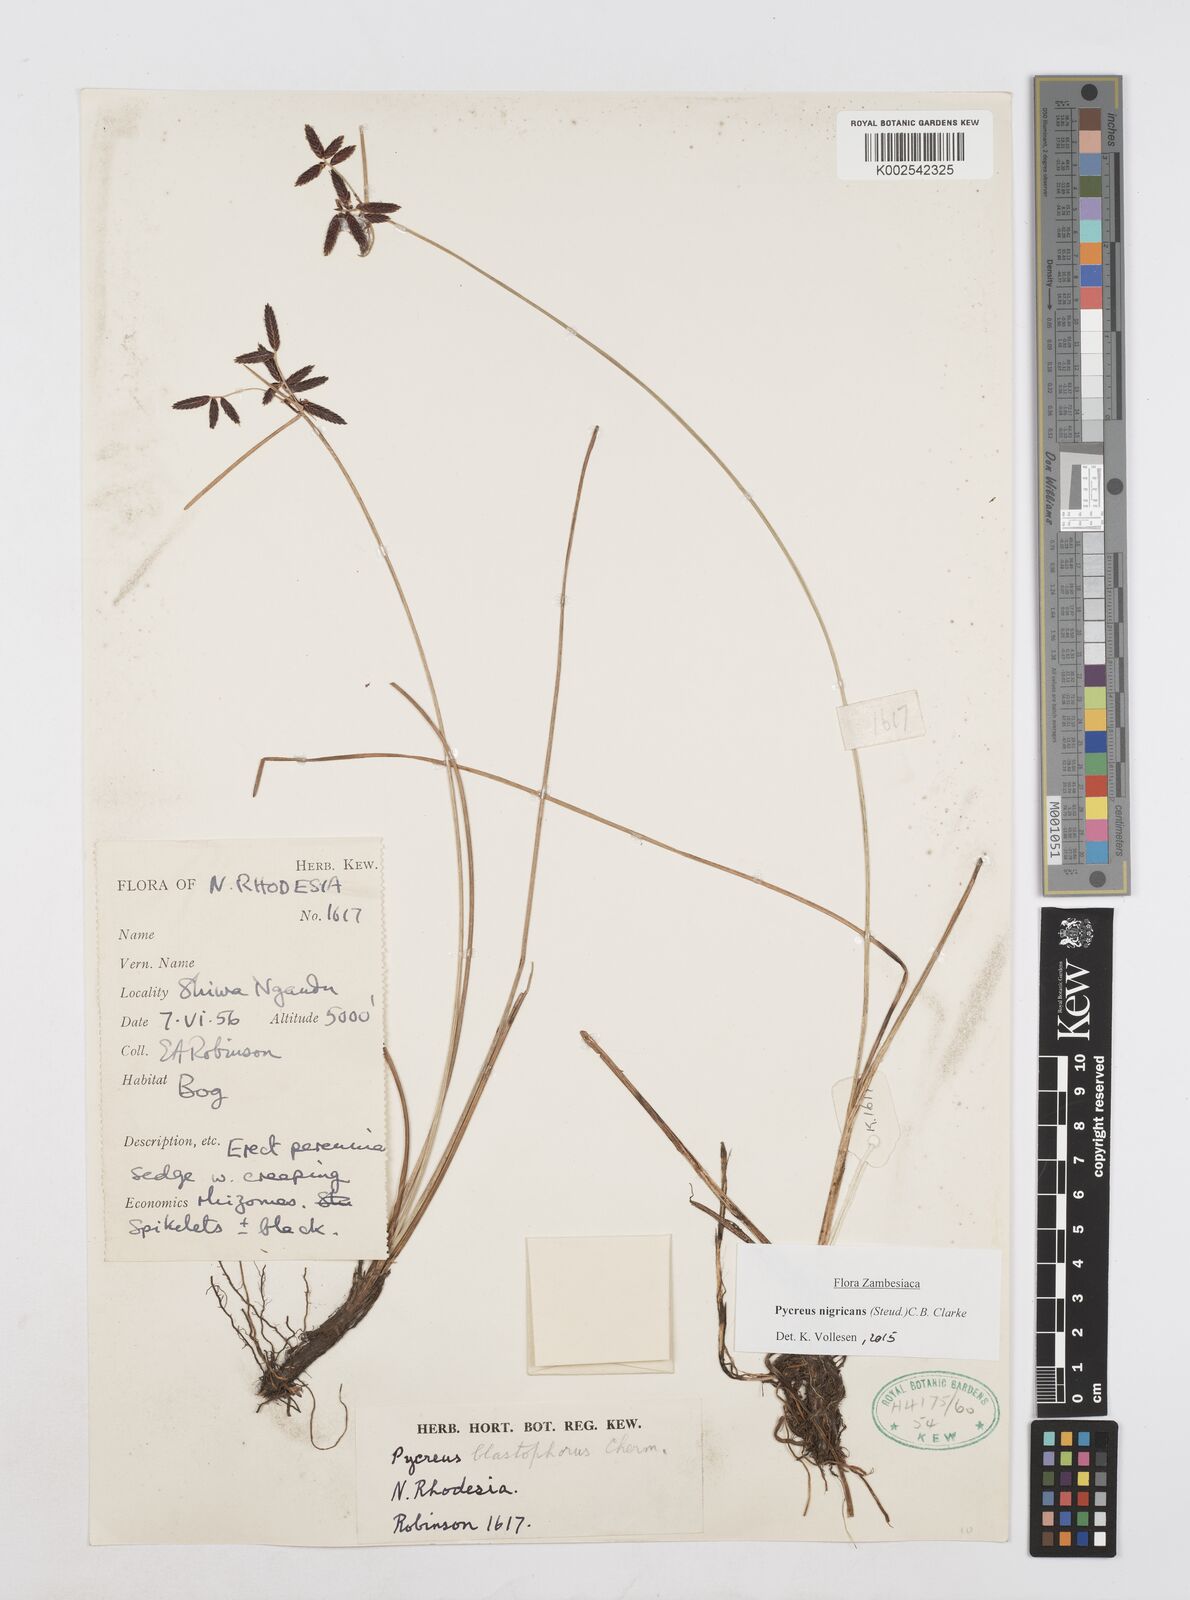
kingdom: Plantae
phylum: Tracheophyta
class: Liliopsida
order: Poales
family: Cyperaceae
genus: Cyperus
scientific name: Cyperus nigricans
